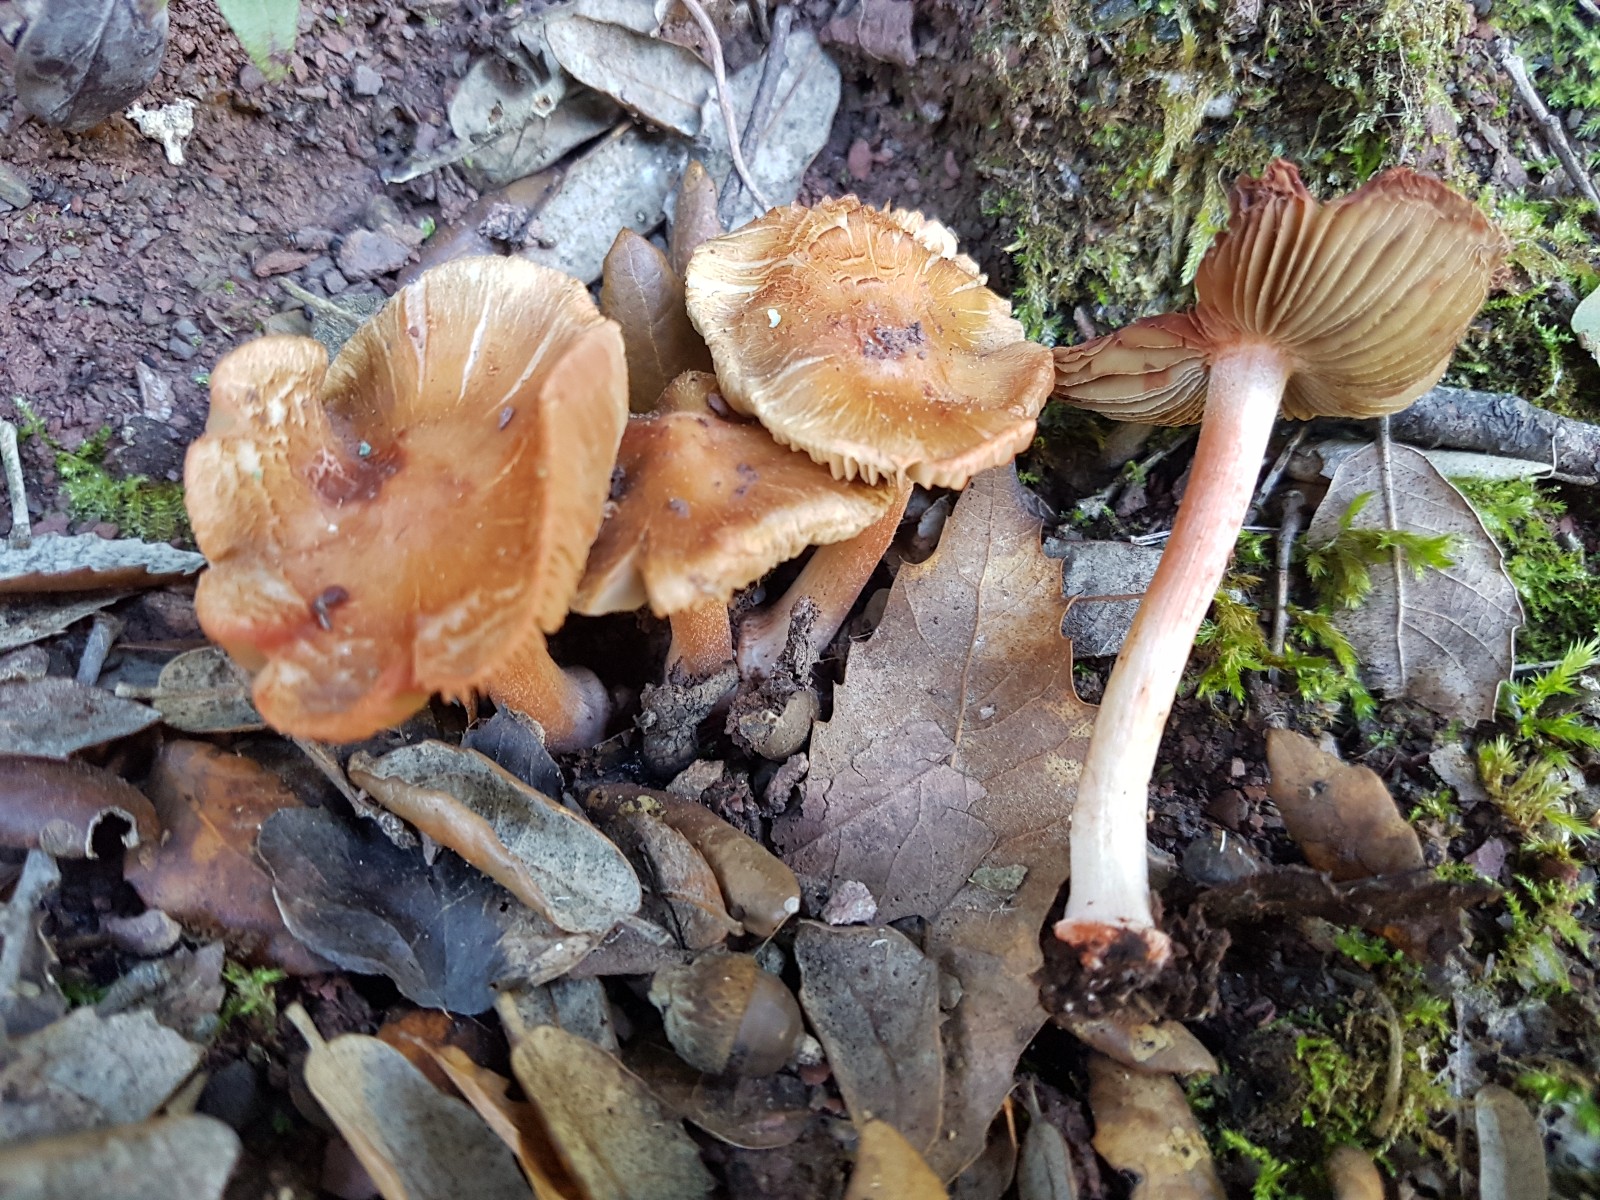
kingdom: Fungi
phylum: Basidiomycota
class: Agaricomycetes
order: Agaricales
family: Inocybaceae
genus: Inocybe
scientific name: Inocybe godeyi
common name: orangerødmende trævlhat
